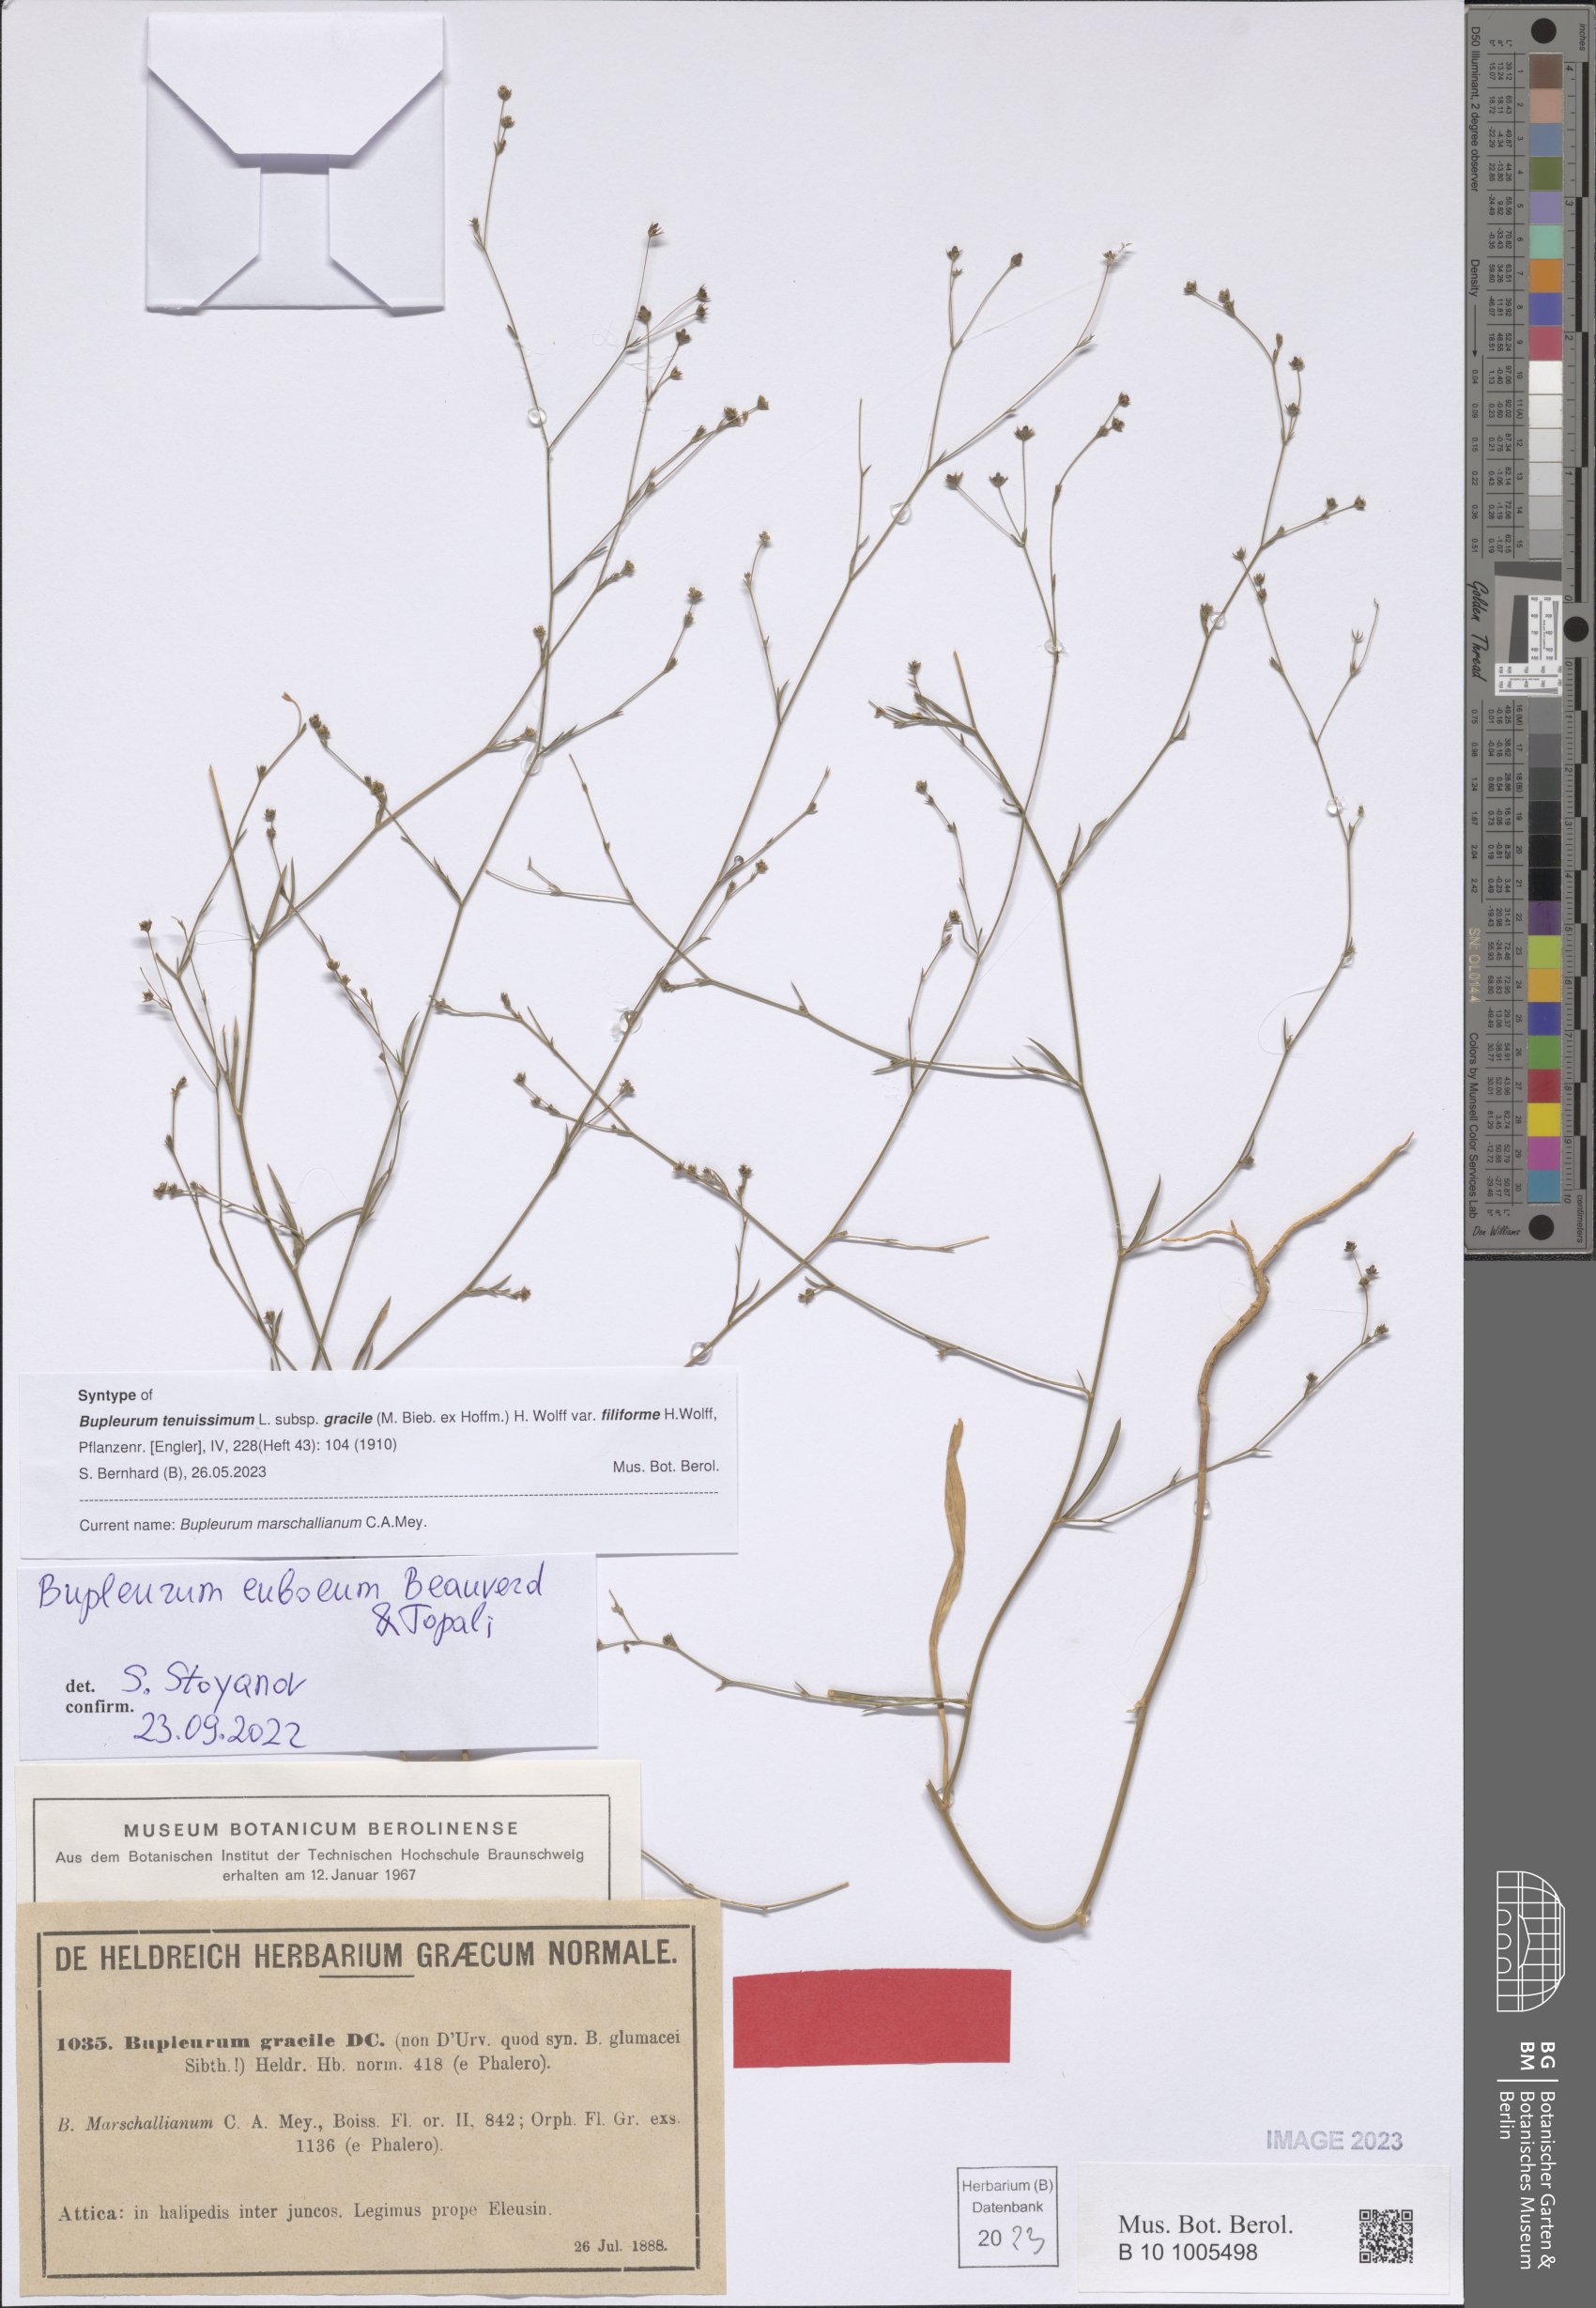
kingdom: Plantae
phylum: Tracheophyta
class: Magnoliopsida
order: Apiales
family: Apiaceae
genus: Bupleurum
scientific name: Bupleurum euboeum
